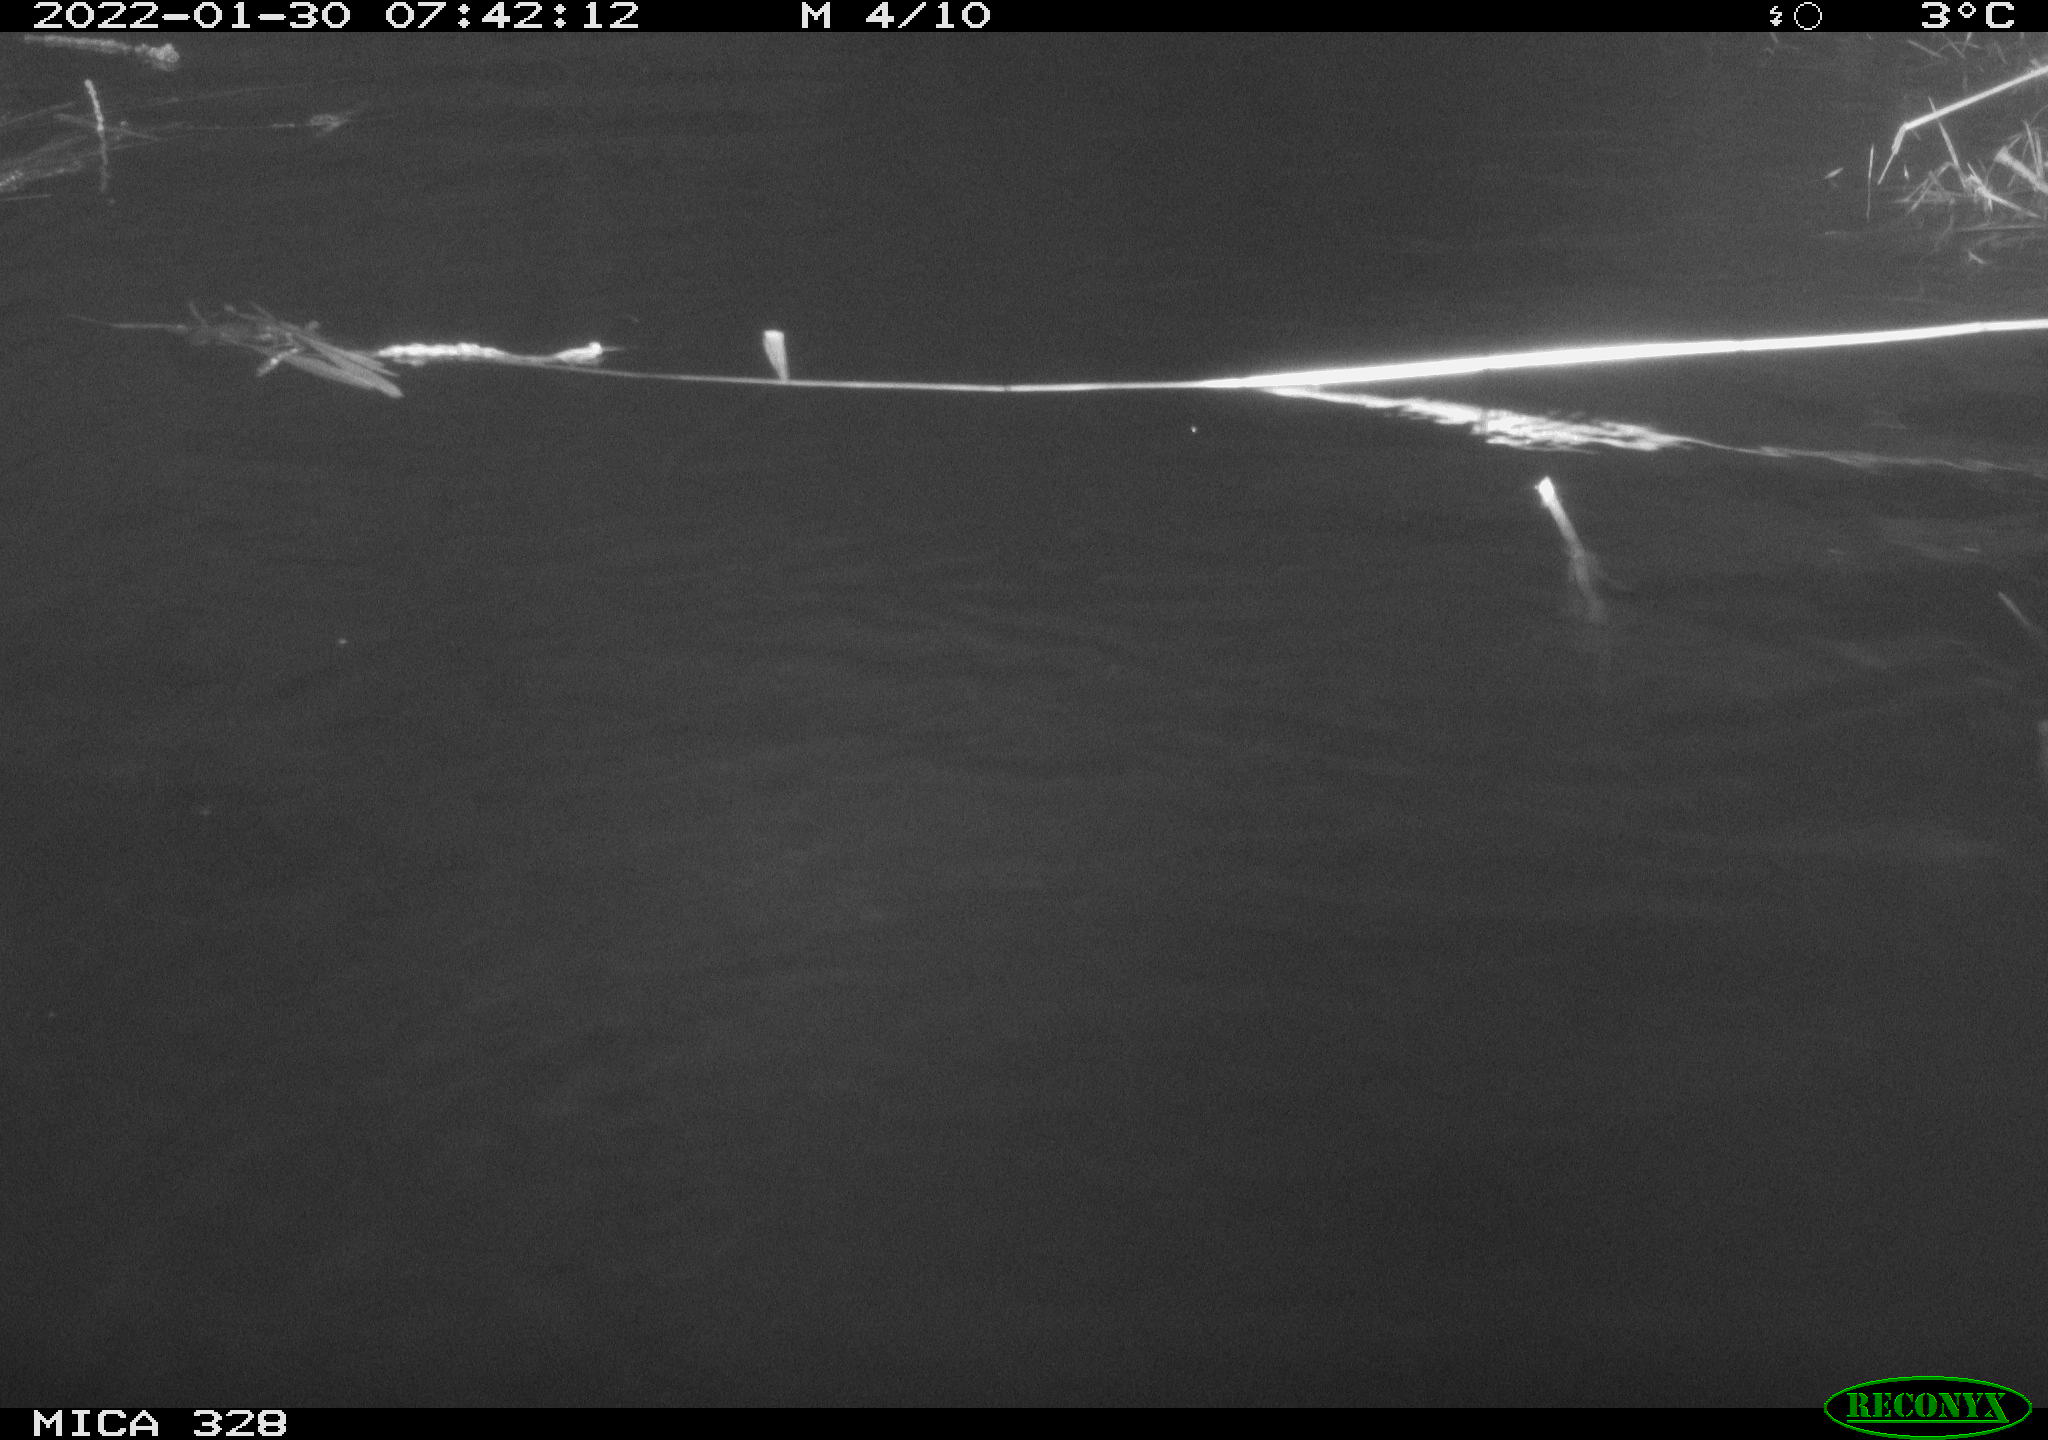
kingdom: Animalia
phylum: Chordata
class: Mammalia
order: Rodentia
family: Cricetidae
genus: Ondatra
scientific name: Ondatra zibethicus
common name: Muskrat
